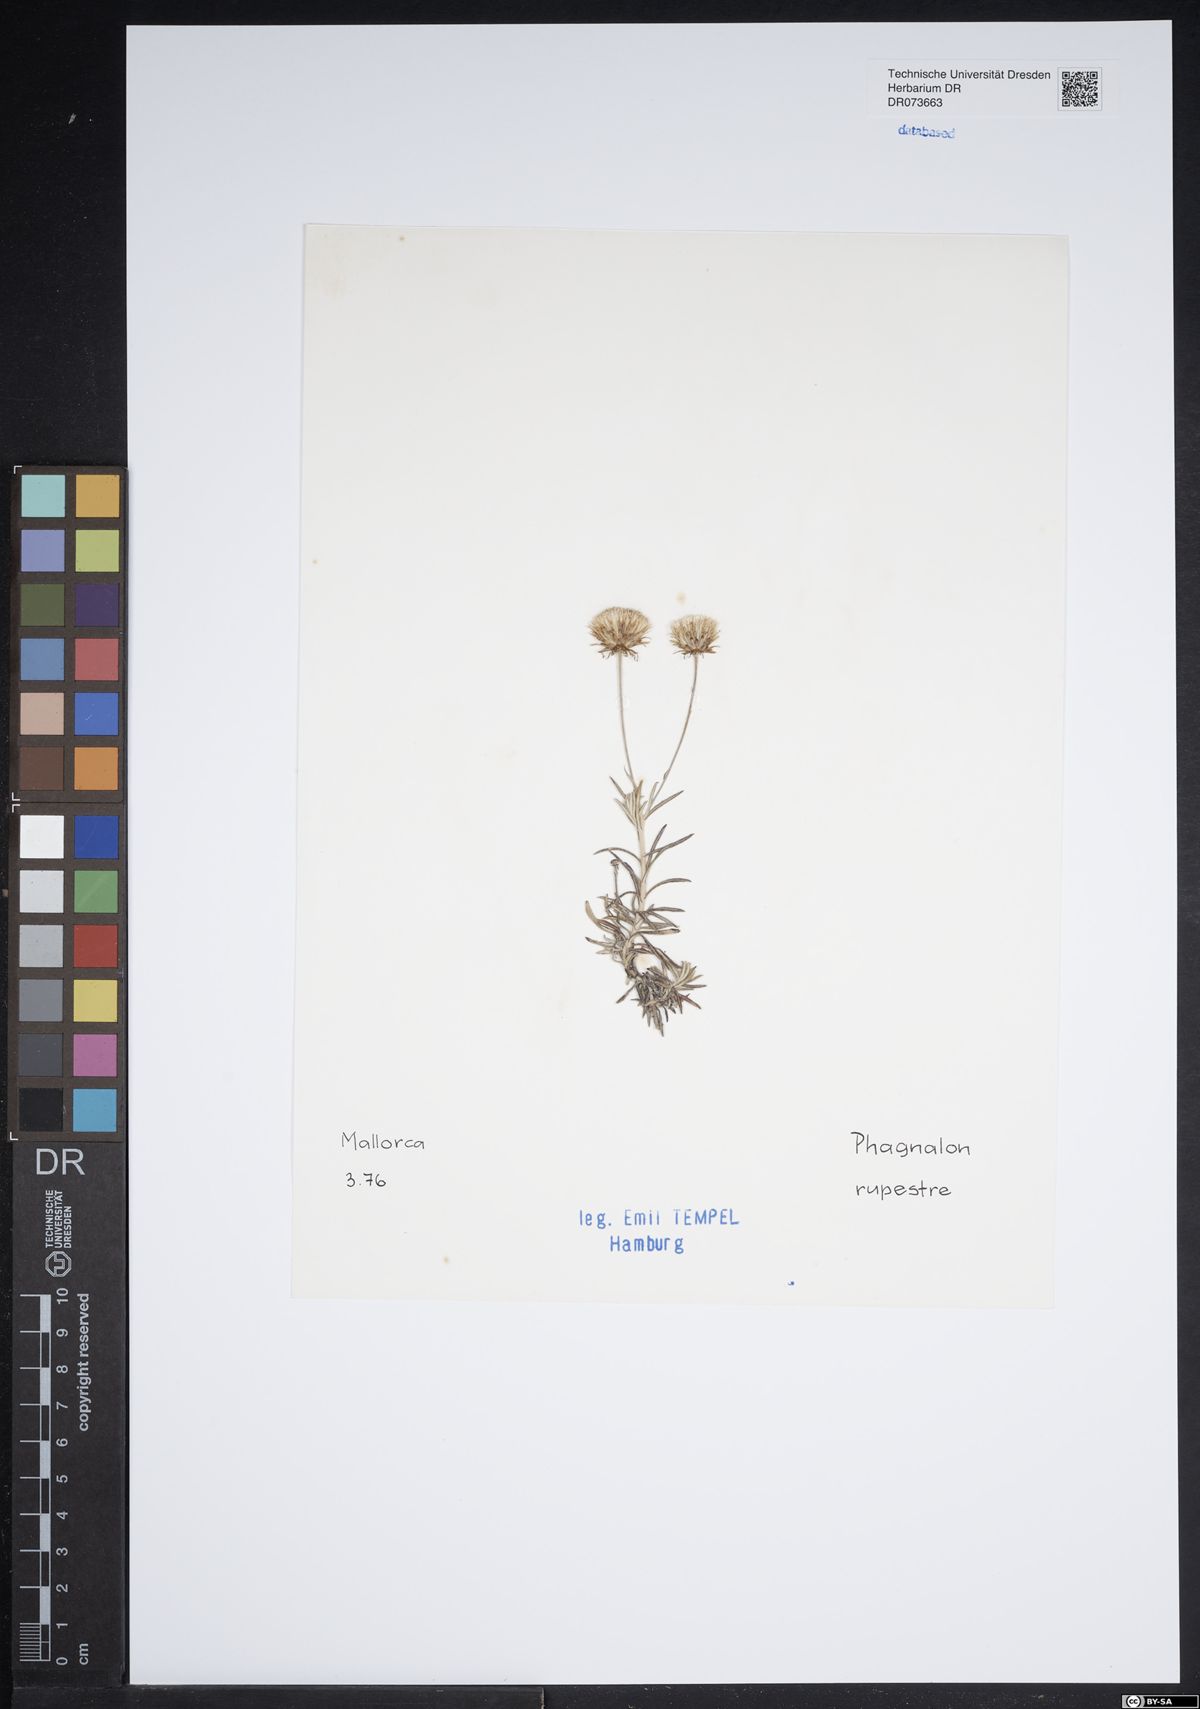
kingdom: Plantae
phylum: Tracheophyta
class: Magnoliopsida
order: Asterales
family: Asteraceae
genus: Phagnalon
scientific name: Phagnalon rupestre
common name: Rock phagnalon
